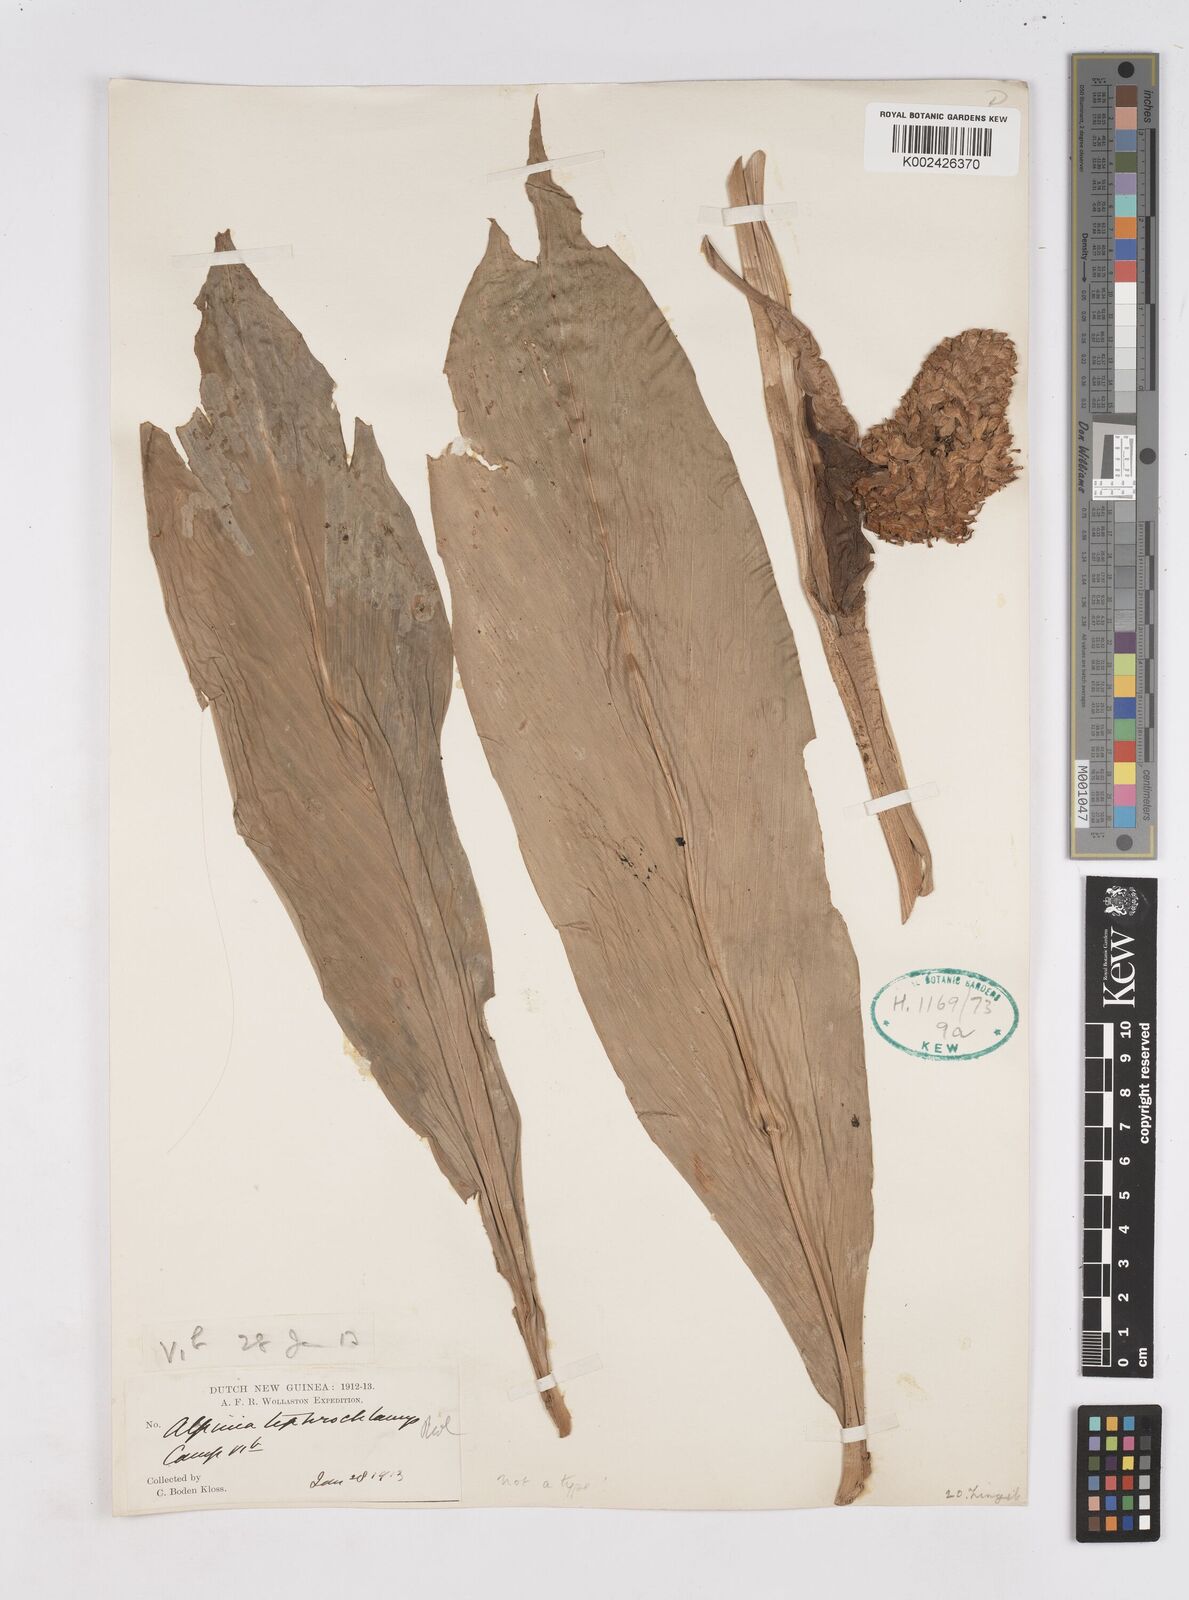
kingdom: Plantae
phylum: Tracheophyta
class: Liliopsida
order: Zingiberales
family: Zingiberaceae
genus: Pleuranthodium
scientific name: Pleuranthodium tephrochlamys
